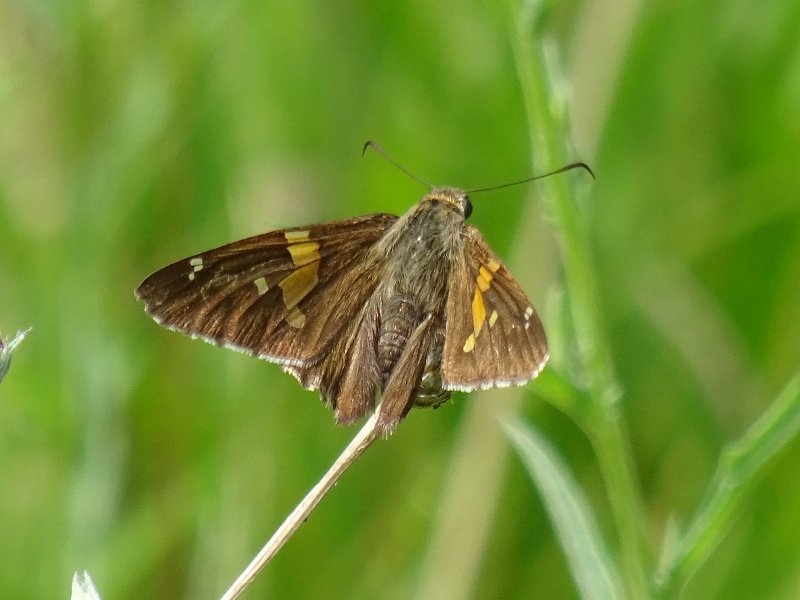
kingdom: Animalia
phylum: Arthropoda
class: Insecta
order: Lepidoptera
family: Hesperiidae
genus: Epargyreus
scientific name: Epargyreus clarus
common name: Silver-spotted Skipper
